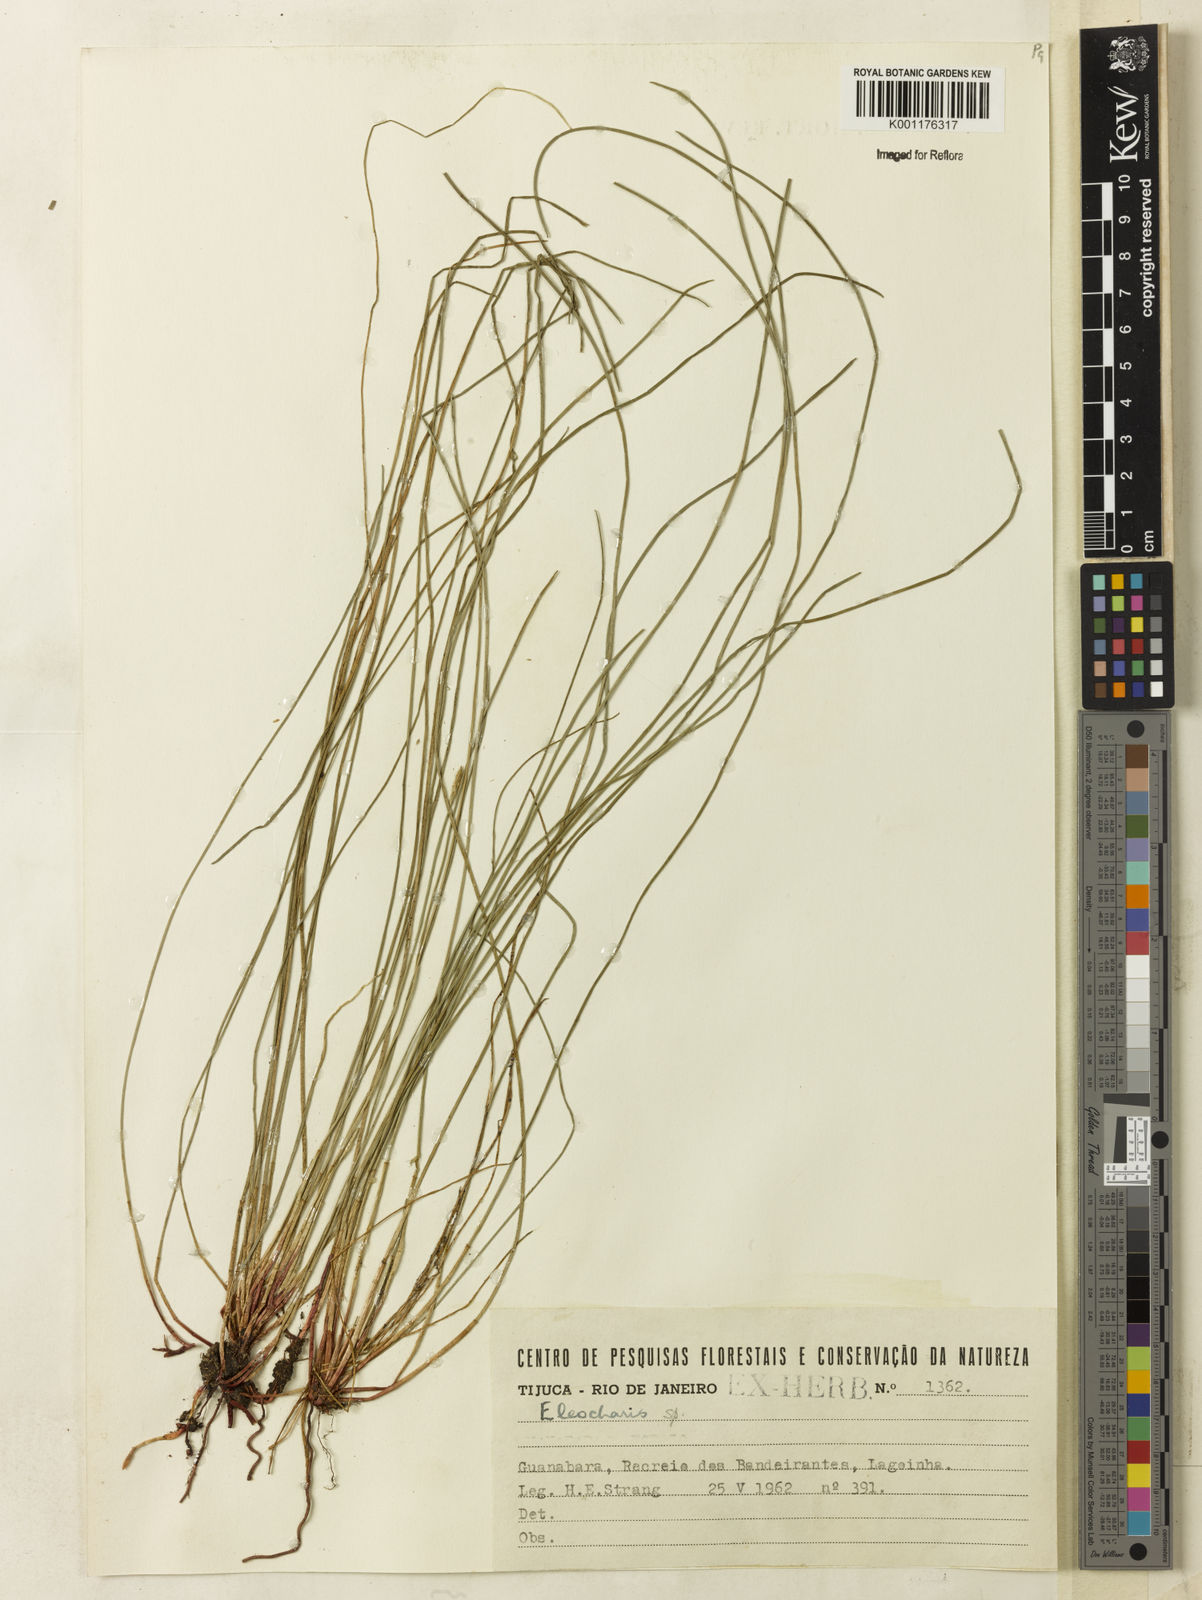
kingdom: Plantae
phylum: Tracheophyta
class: Liliopsida
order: Poales
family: Cyperaceae
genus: Eleocharis
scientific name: Eleocharis
